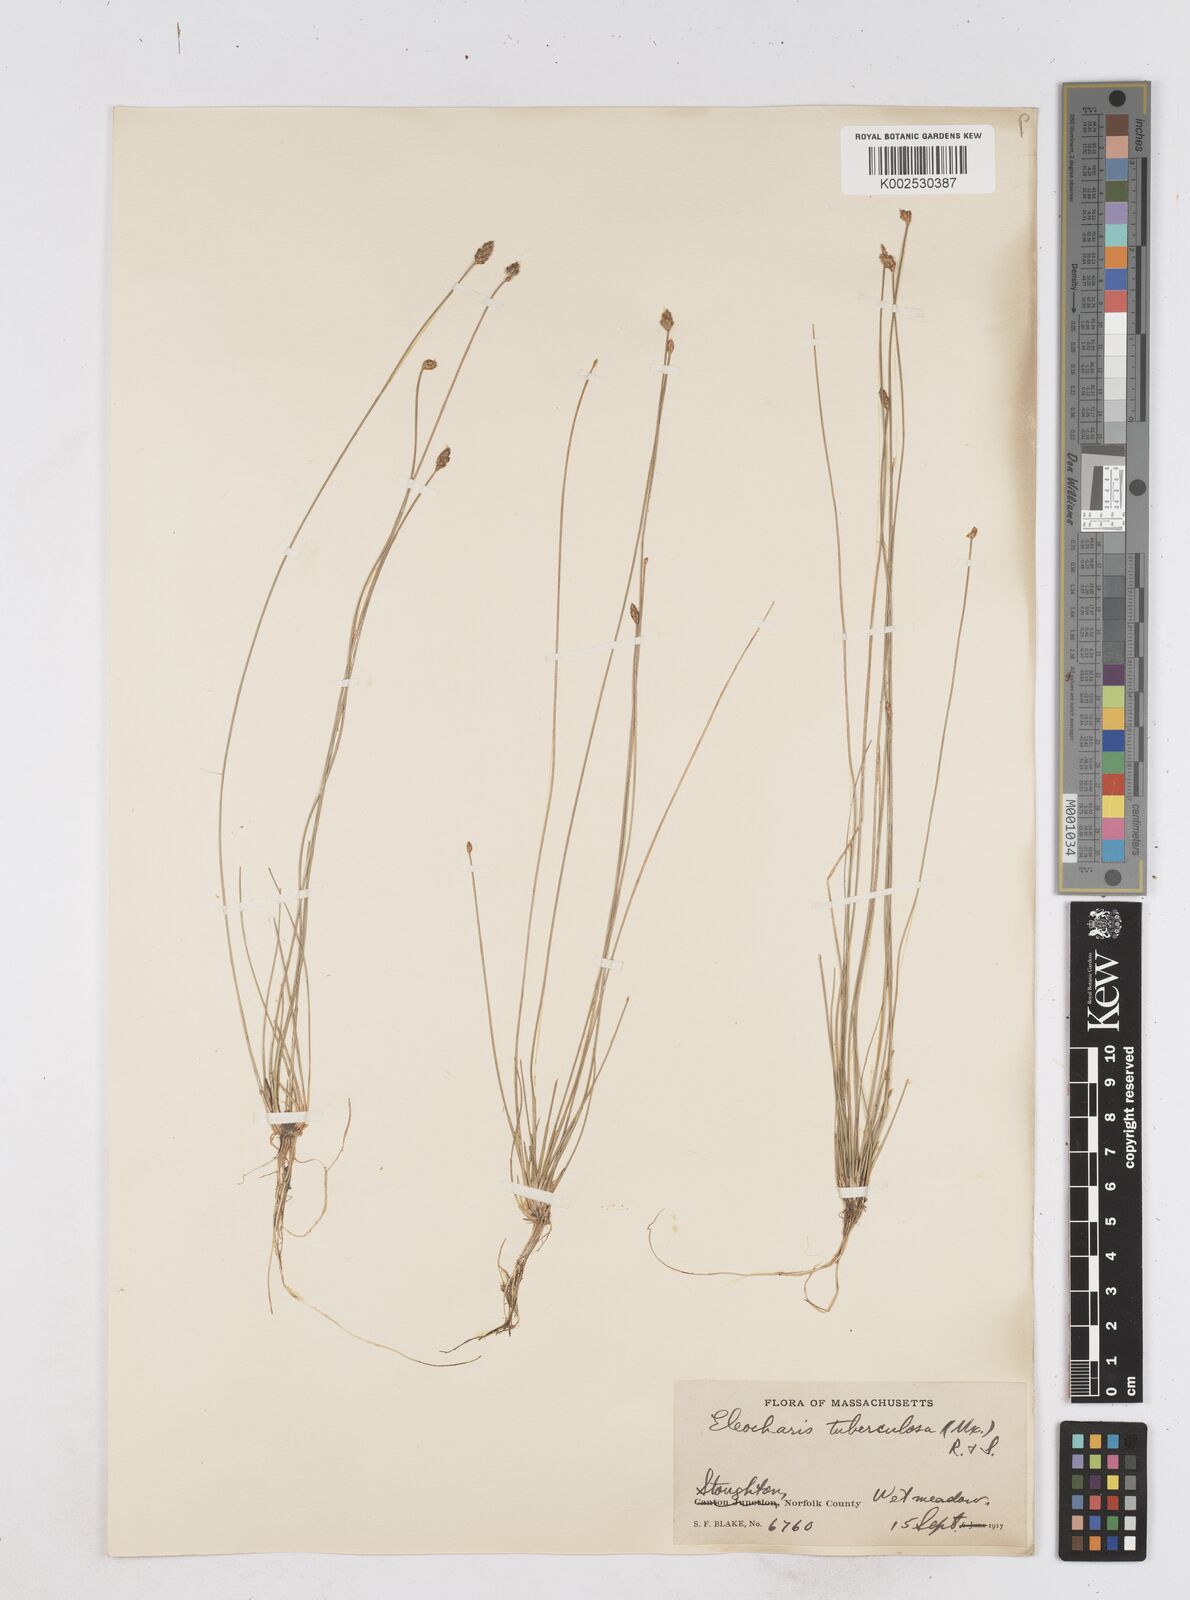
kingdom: Plantae
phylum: Tracheophyta
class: Liliopsida
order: Poales
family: Cyperaceae
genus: Eleocharis
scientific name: Eleocharis tuberculosa
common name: Cone-cup spikerush
